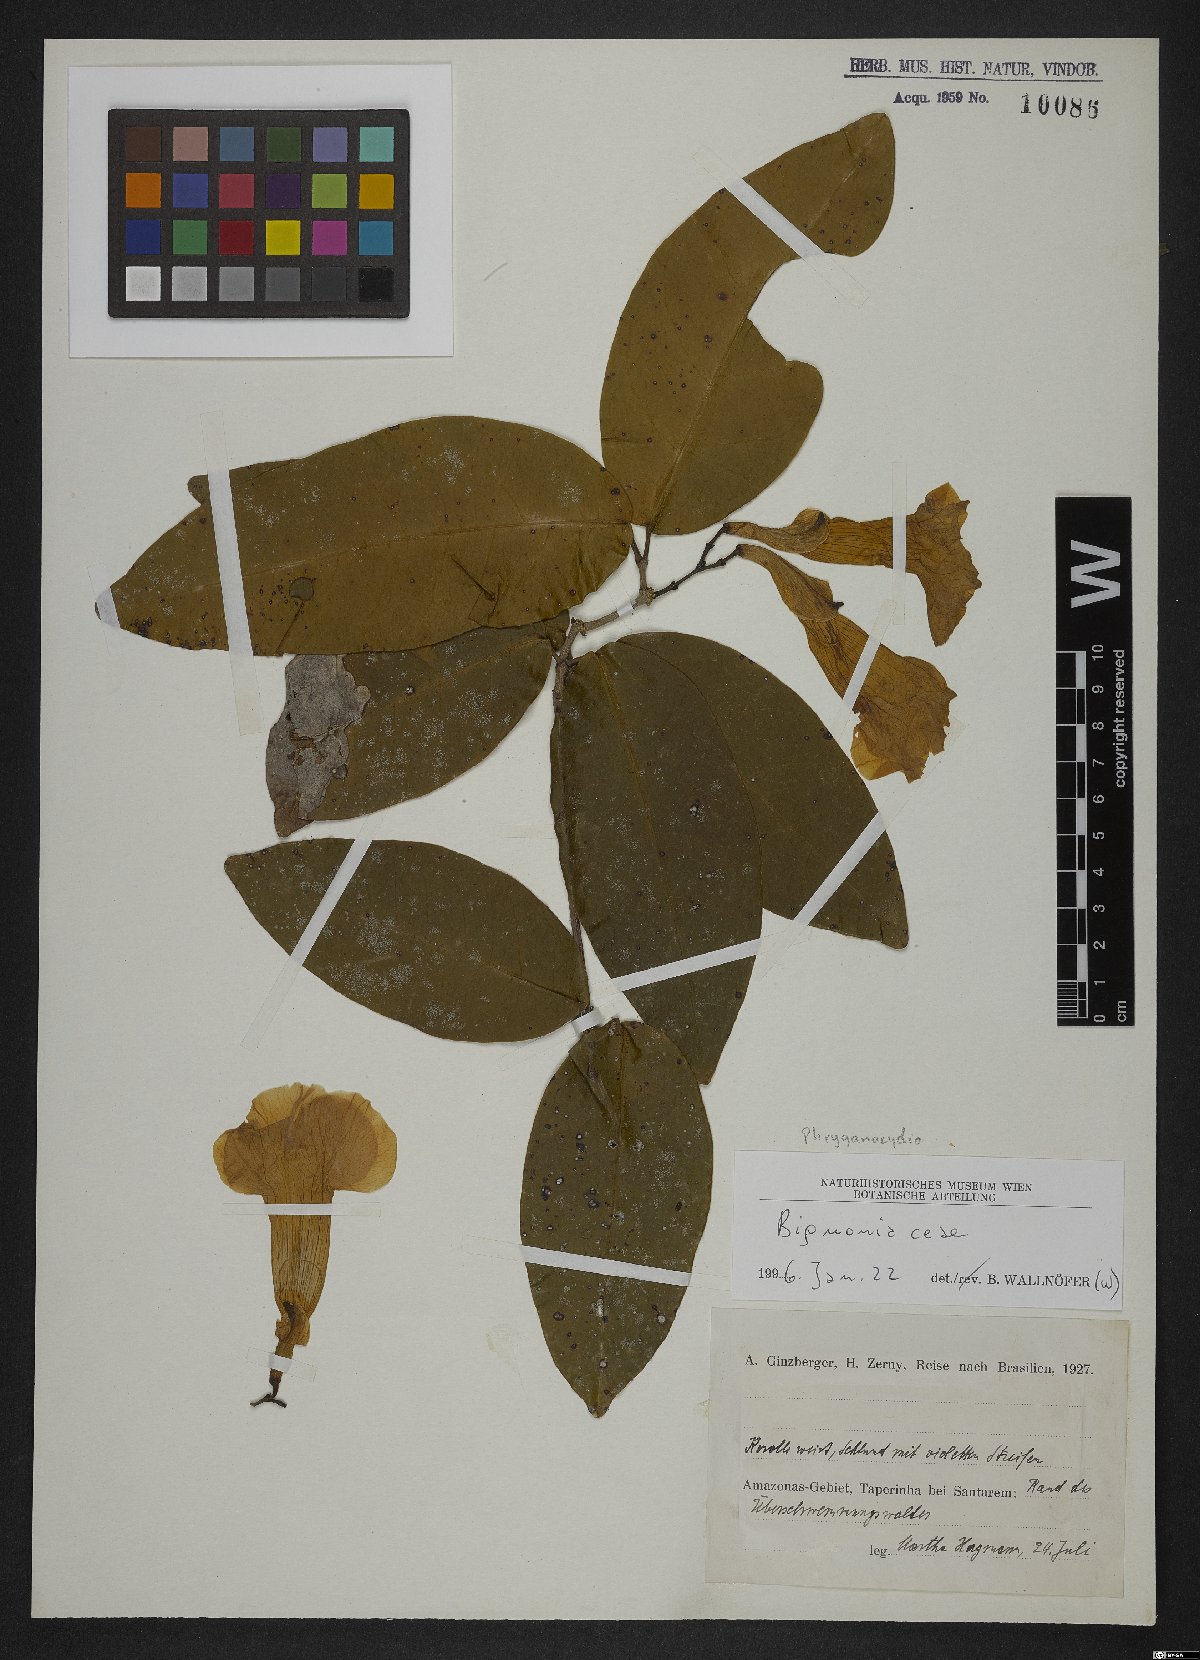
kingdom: Plantae
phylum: Tracheophyta
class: Magnoliopsida
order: Lamiales
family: Bignoniaceae
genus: Phryganocydia
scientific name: Phryganocydia
